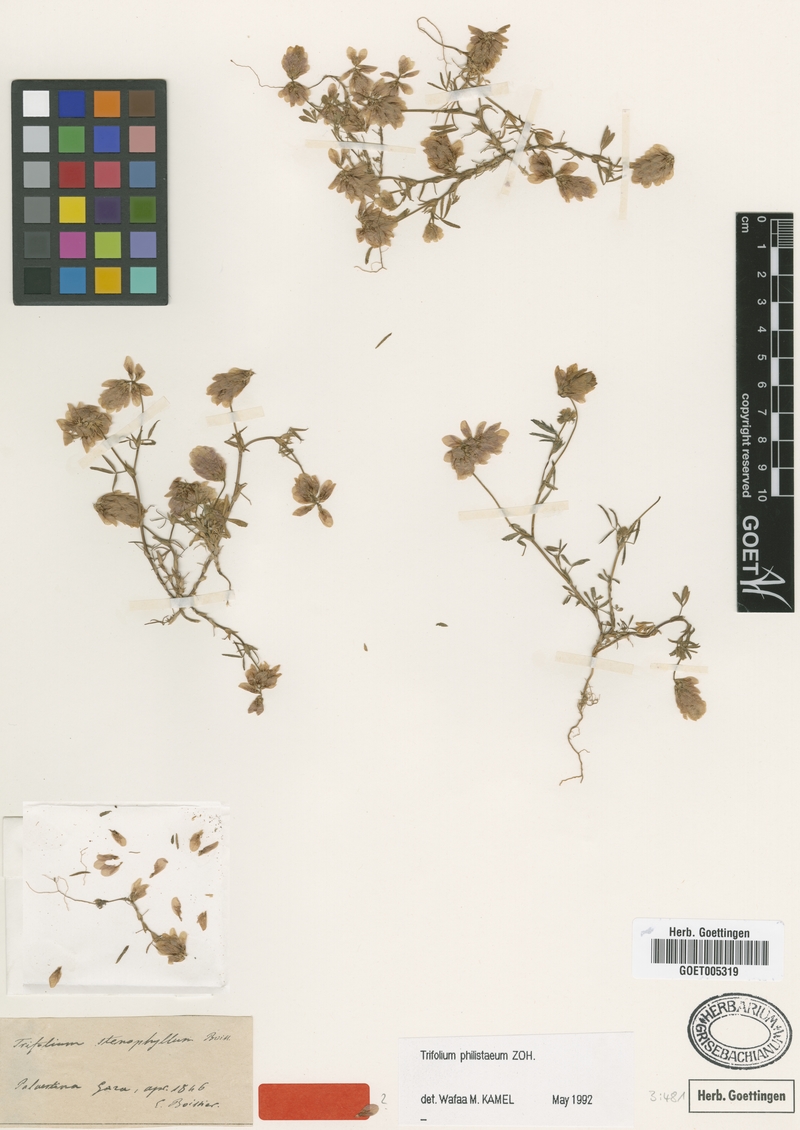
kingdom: Plantae
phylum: Tracheophyta
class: Magnoliopsida
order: Fabales
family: Fabaceae
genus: Trifolium
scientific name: Trifolium philistaeum
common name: Palestine clover
